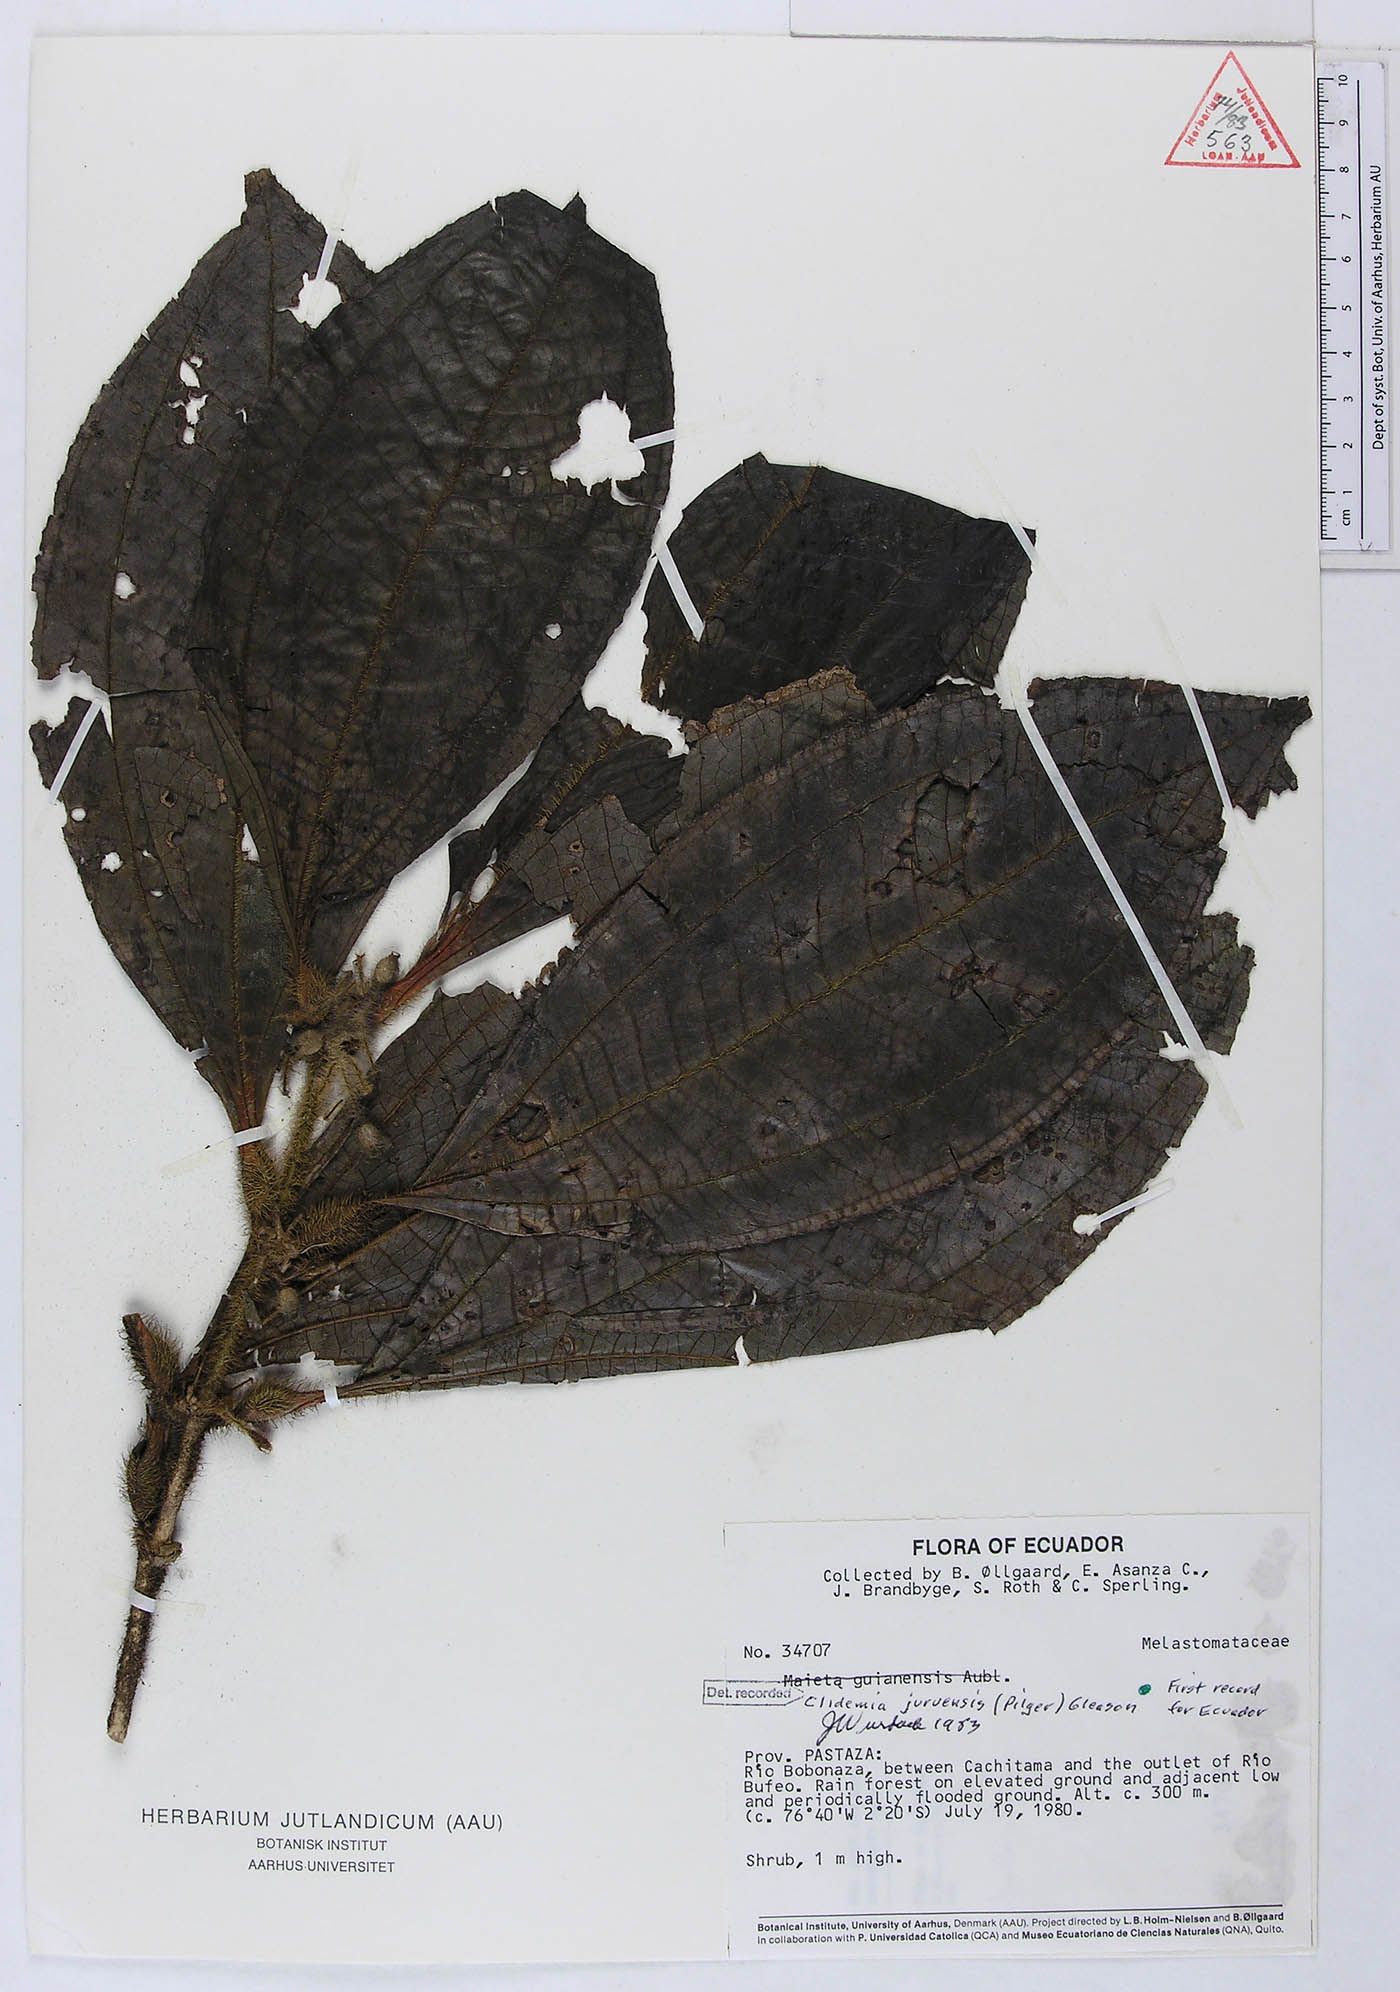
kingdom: Plantae
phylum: Tracheophyta
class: Magnoliopsida
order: Myrtales
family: Melastomataceae
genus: Miconia
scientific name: Miconia formicojuruensis
